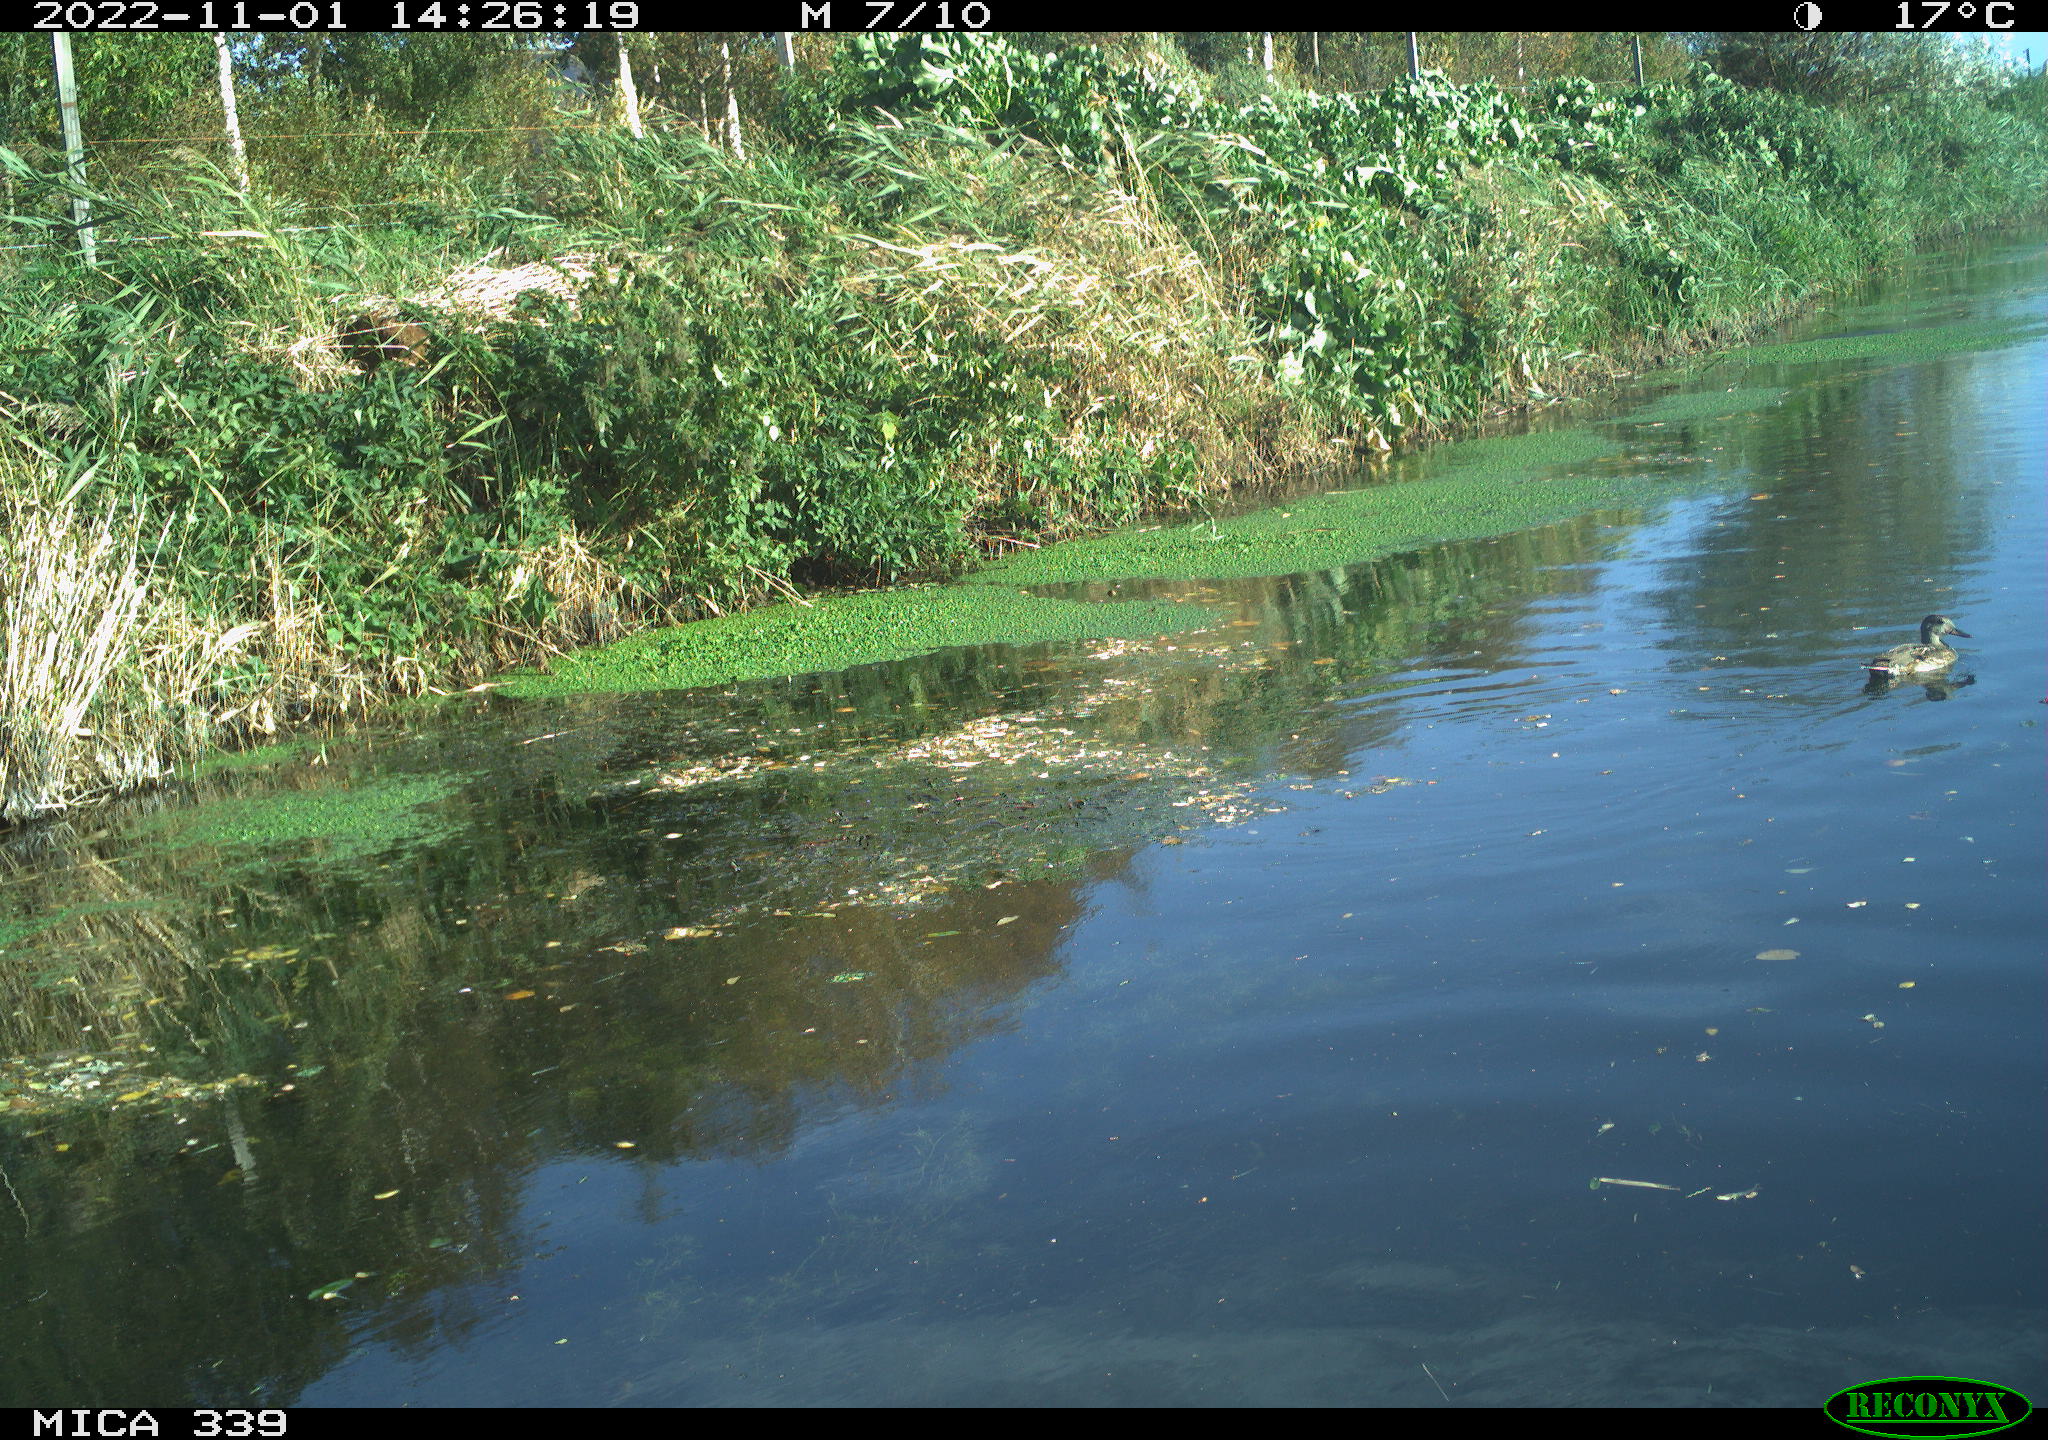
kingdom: Animalia
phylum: Chordata
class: Aves
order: Anseriformes
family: Anatidae
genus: Mareca
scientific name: Mareca strepera
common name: Gadwall
